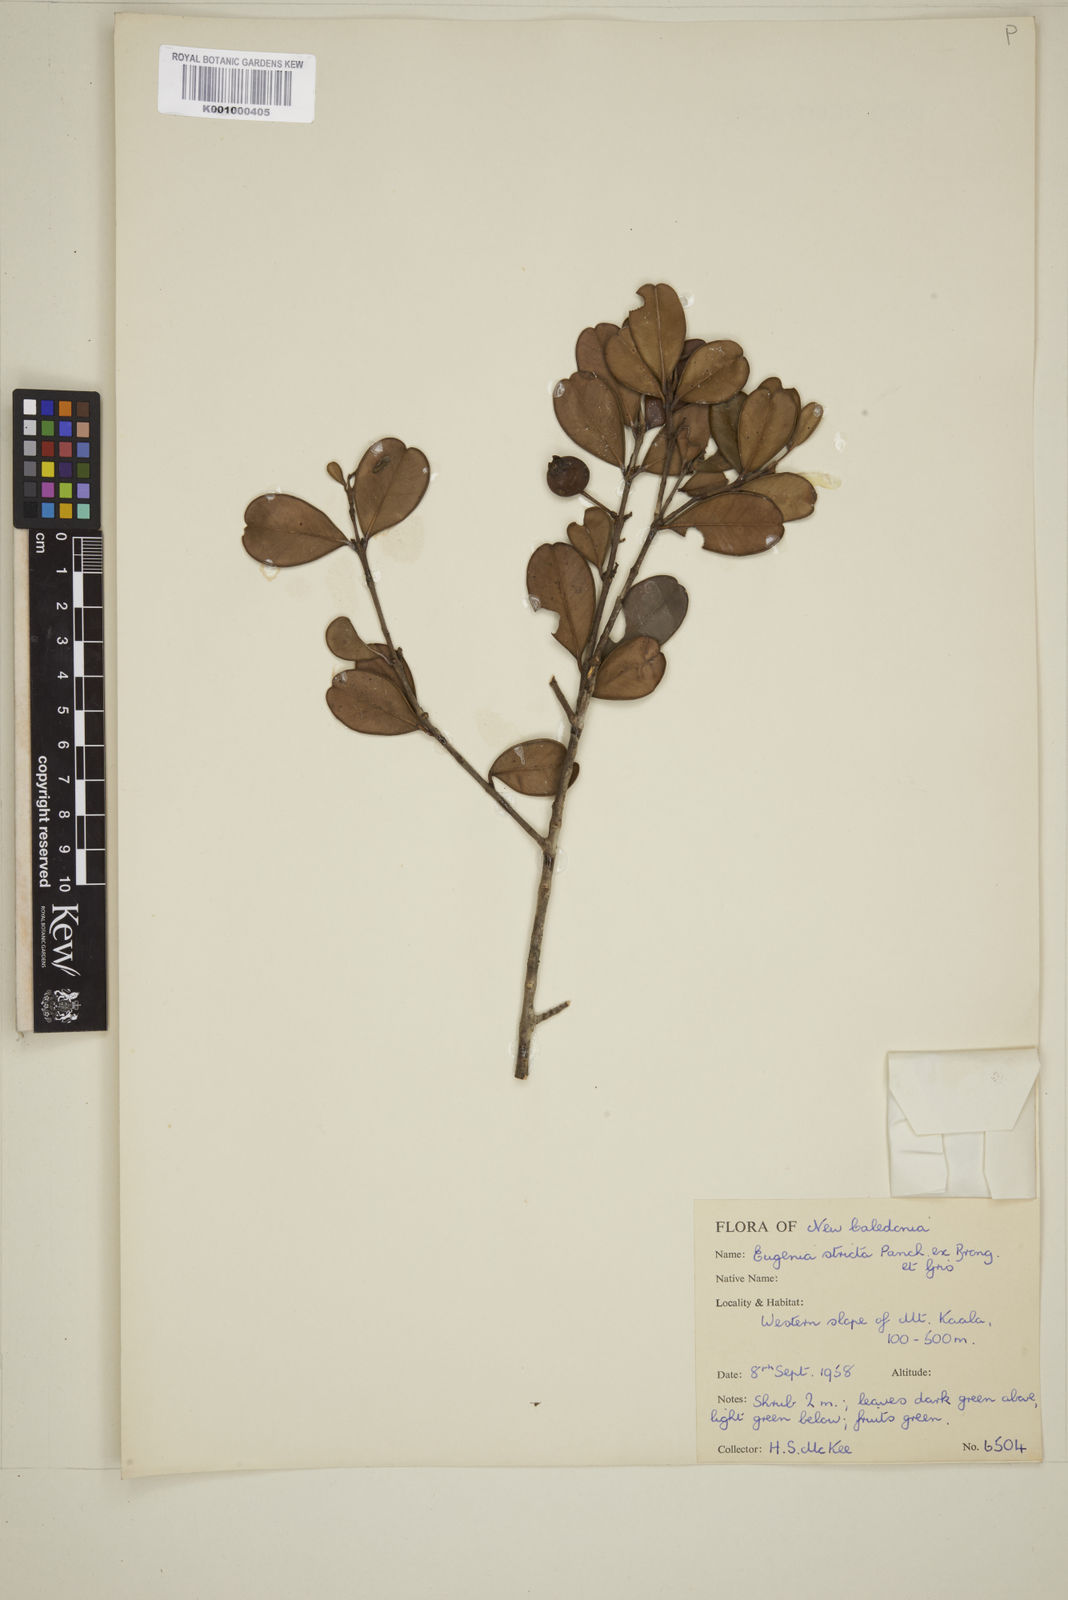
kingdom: Plantae
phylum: Tracheophyta
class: Magnoliopsida
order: Myrtales
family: Myrtaceae
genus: Austromyrtus
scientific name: Austromyrtus stricta
